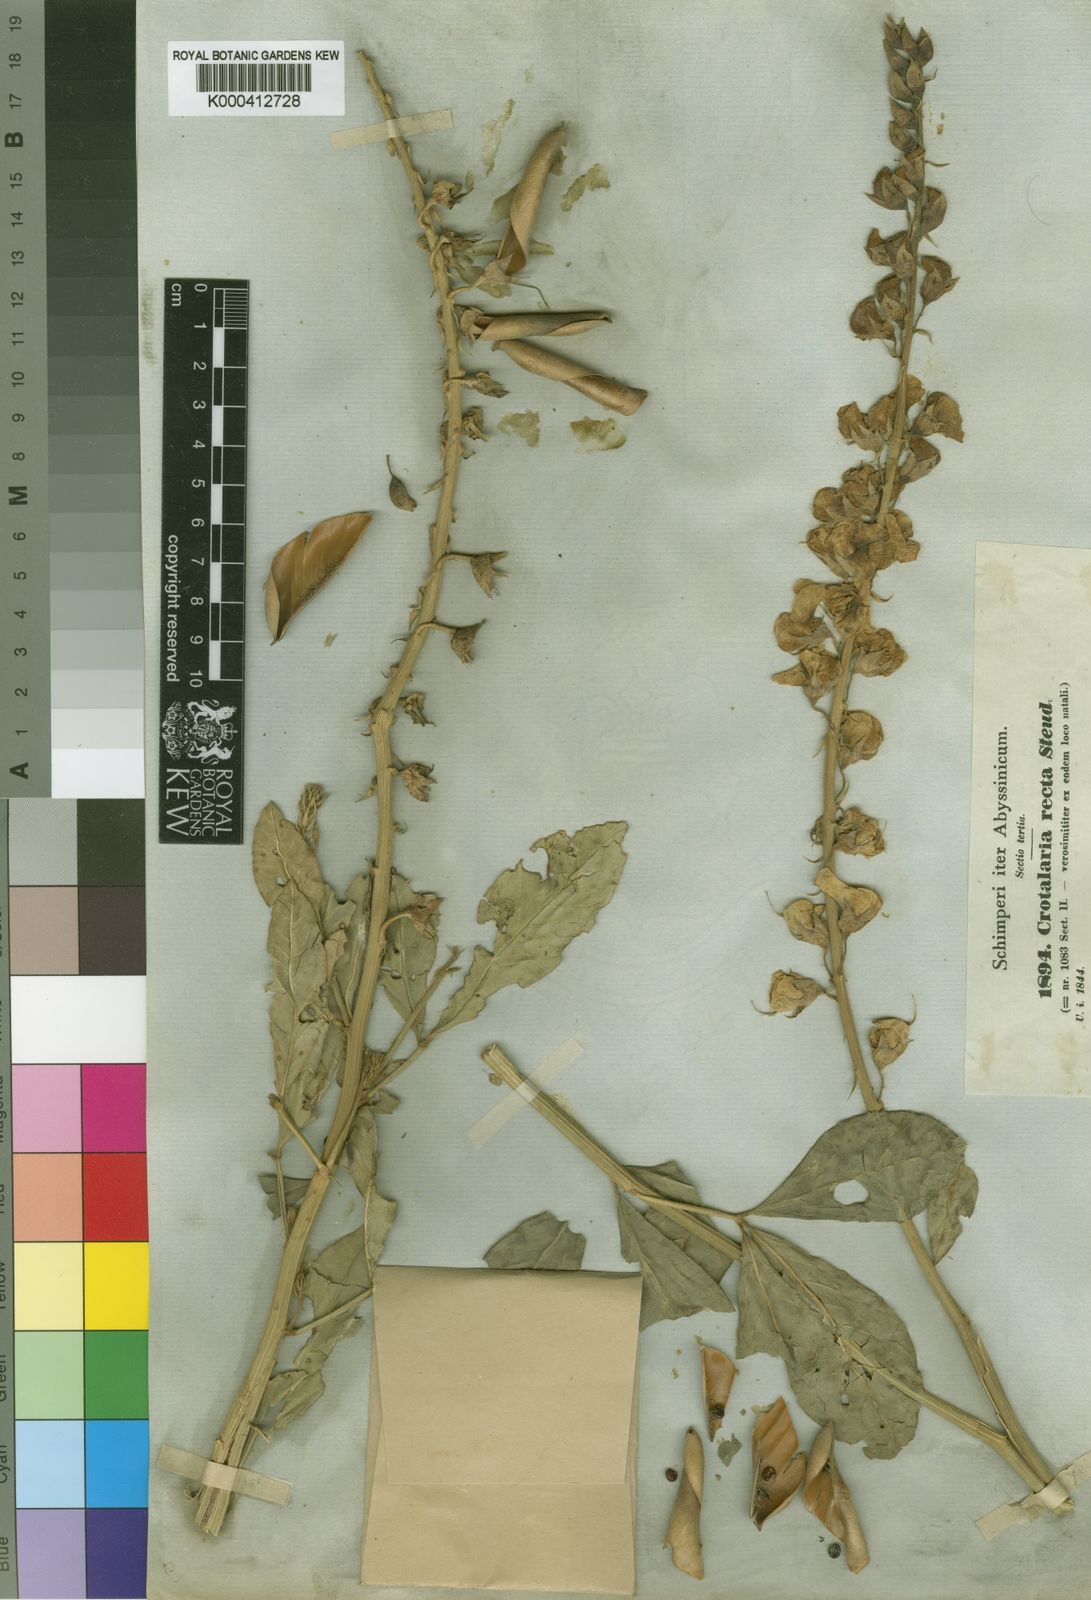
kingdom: Plantae
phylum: Tracheophyta
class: Magnoliopsida
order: Fabales
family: Fabaceae
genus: Crotalaria
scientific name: Crotalaria recta
